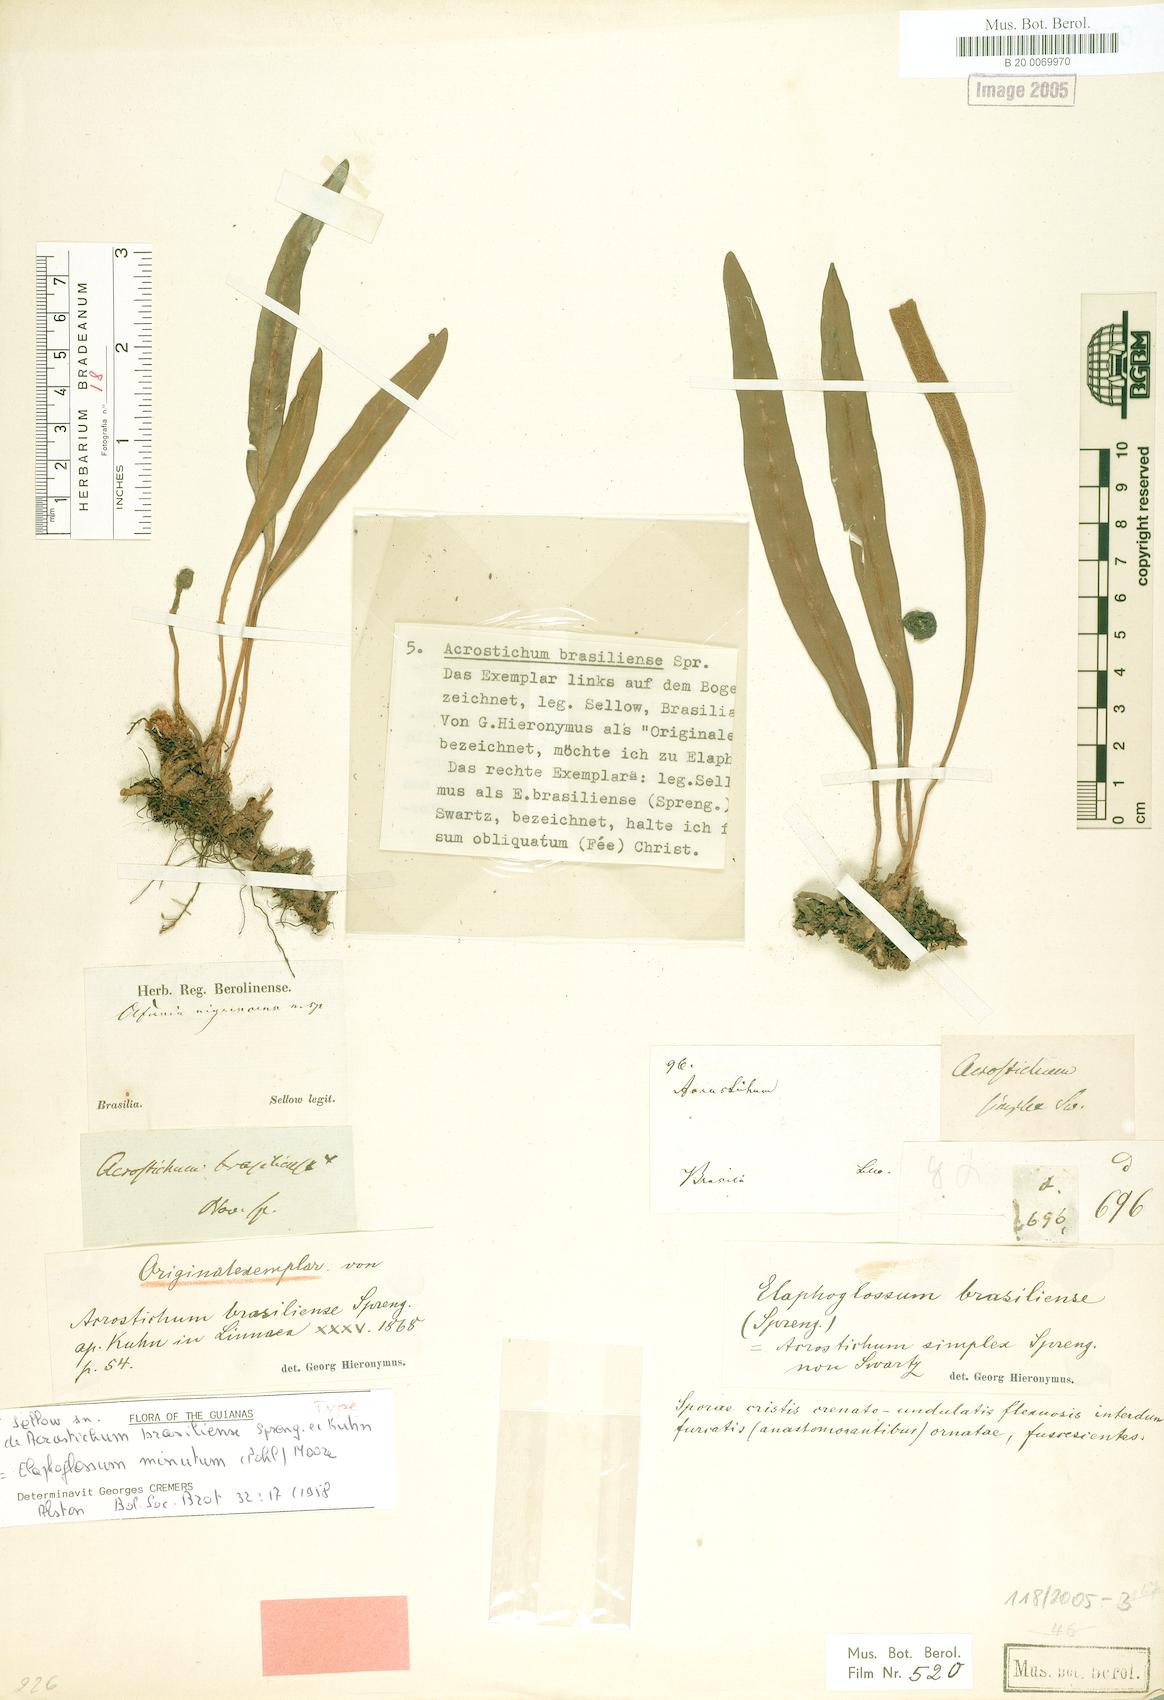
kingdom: Plantae
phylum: Tracheophyta
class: Polypodiopsida
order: Polypodiales
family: Dryopteridaceae
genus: Elaphoglossum
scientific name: Elaphoglossum minutum
